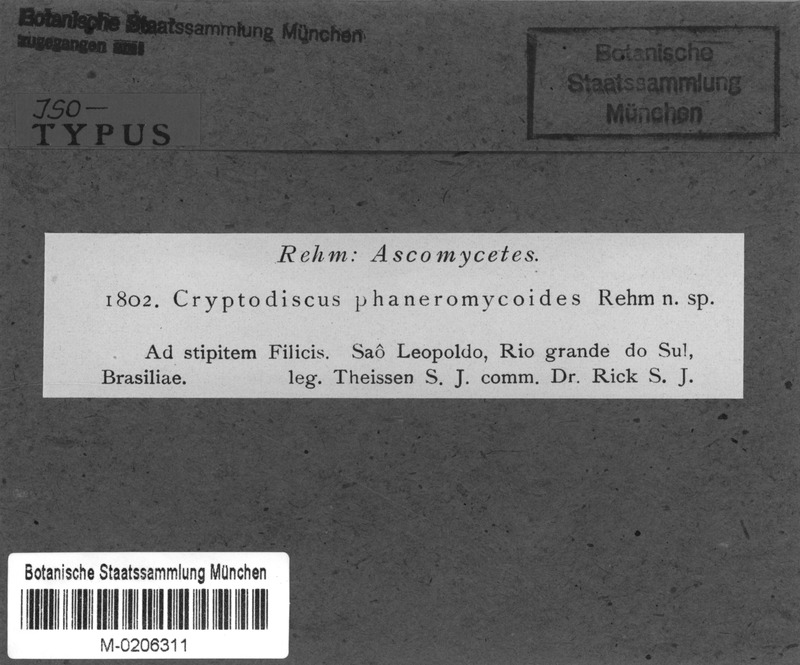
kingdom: Fungi
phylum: Ascomycota
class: Lecanoromycetes
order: Ostropales
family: Stictidaceae
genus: Cryptodiscus
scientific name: Cryptodiscus
